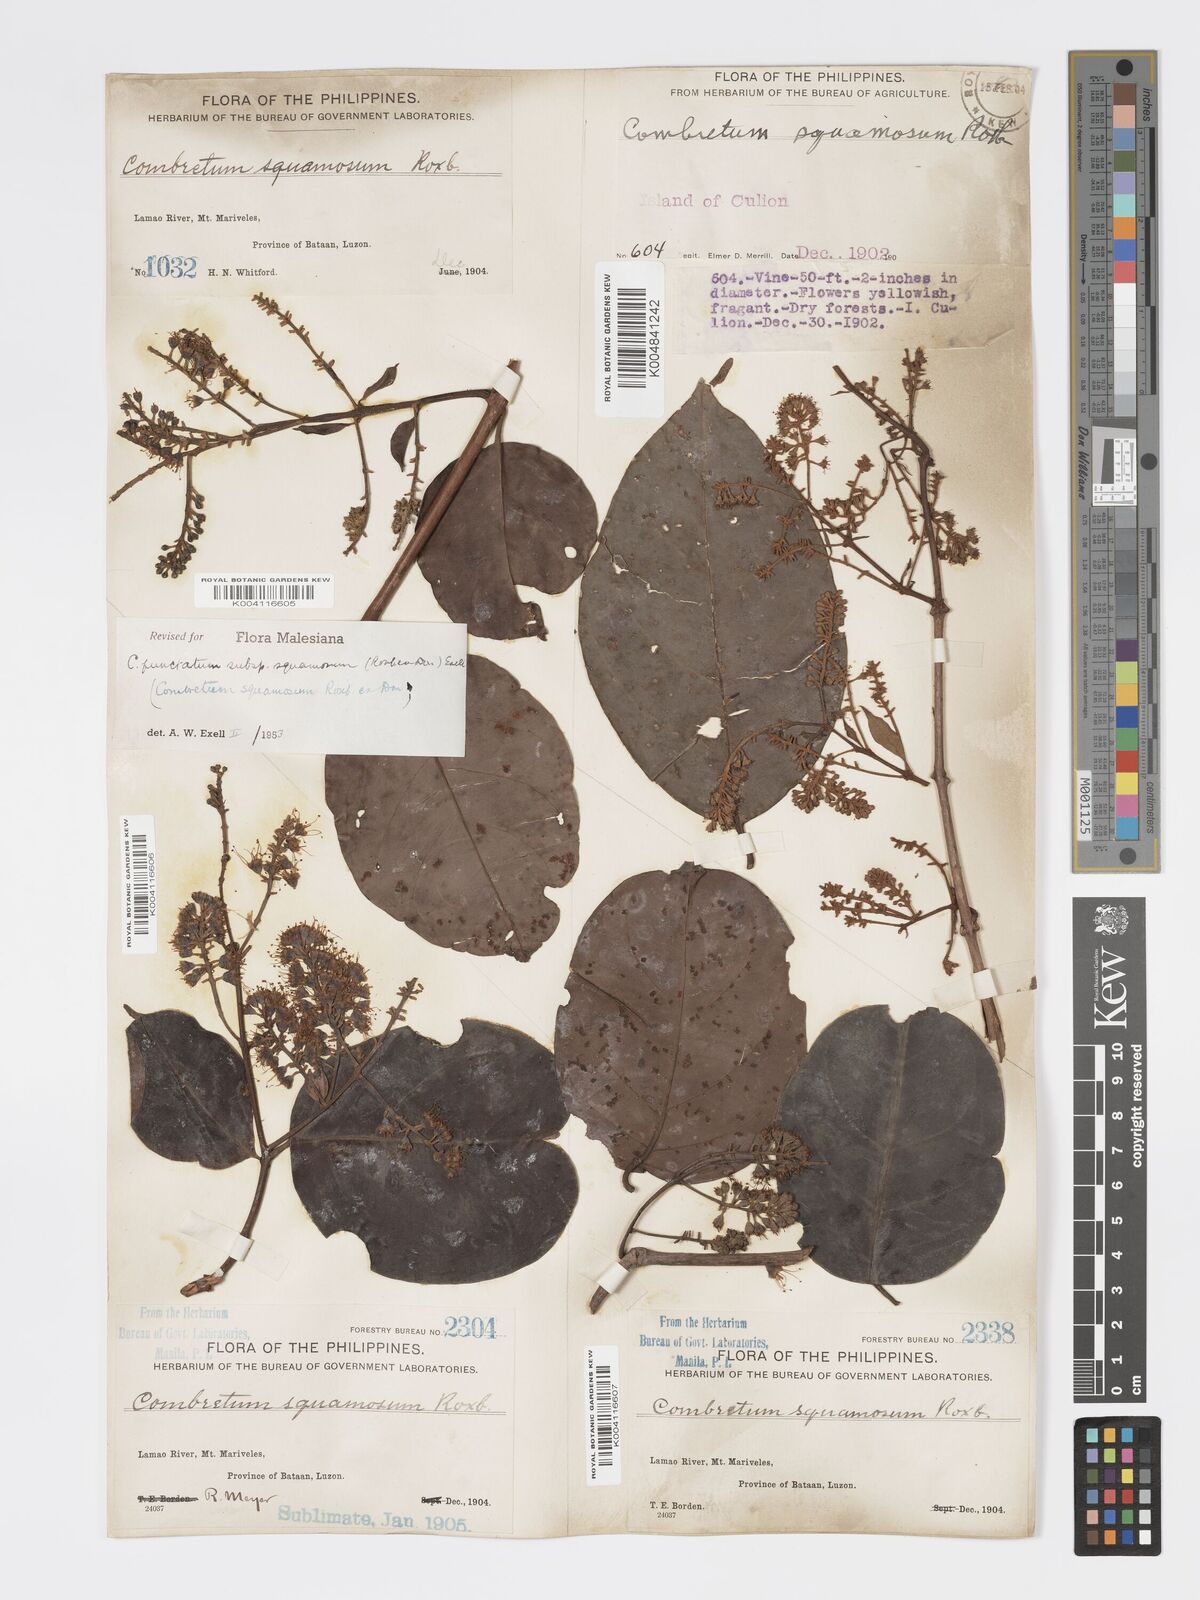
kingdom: Plantae
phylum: Tracheophyta
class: Magnoliopsida
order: Myrtales
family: Combretaceae
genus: Combretum
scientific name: Combretum
